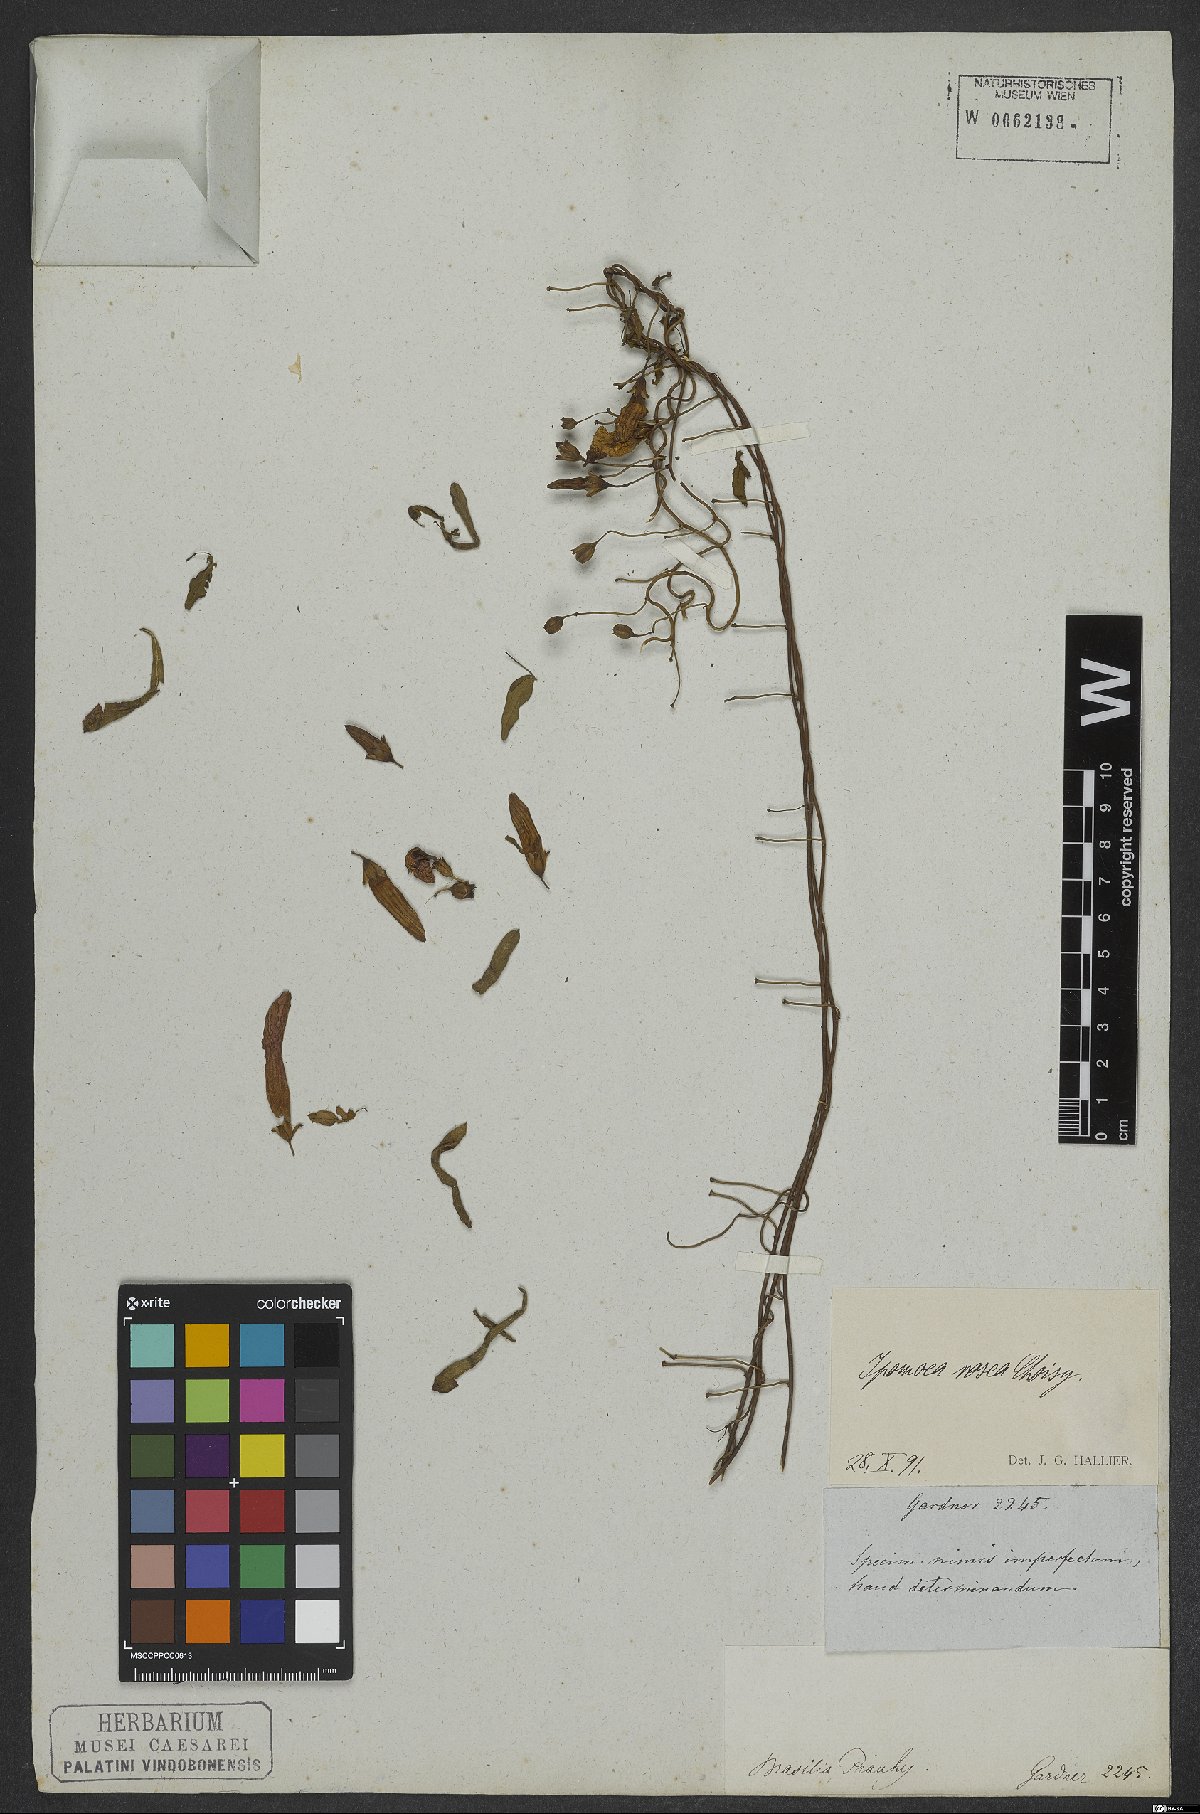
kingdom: Plantae
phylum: Tracheophyta
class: Magnoliopsida
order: Solanales
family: Convolvulaceae
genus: Ipomoea
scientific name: Ipomoea rosea
